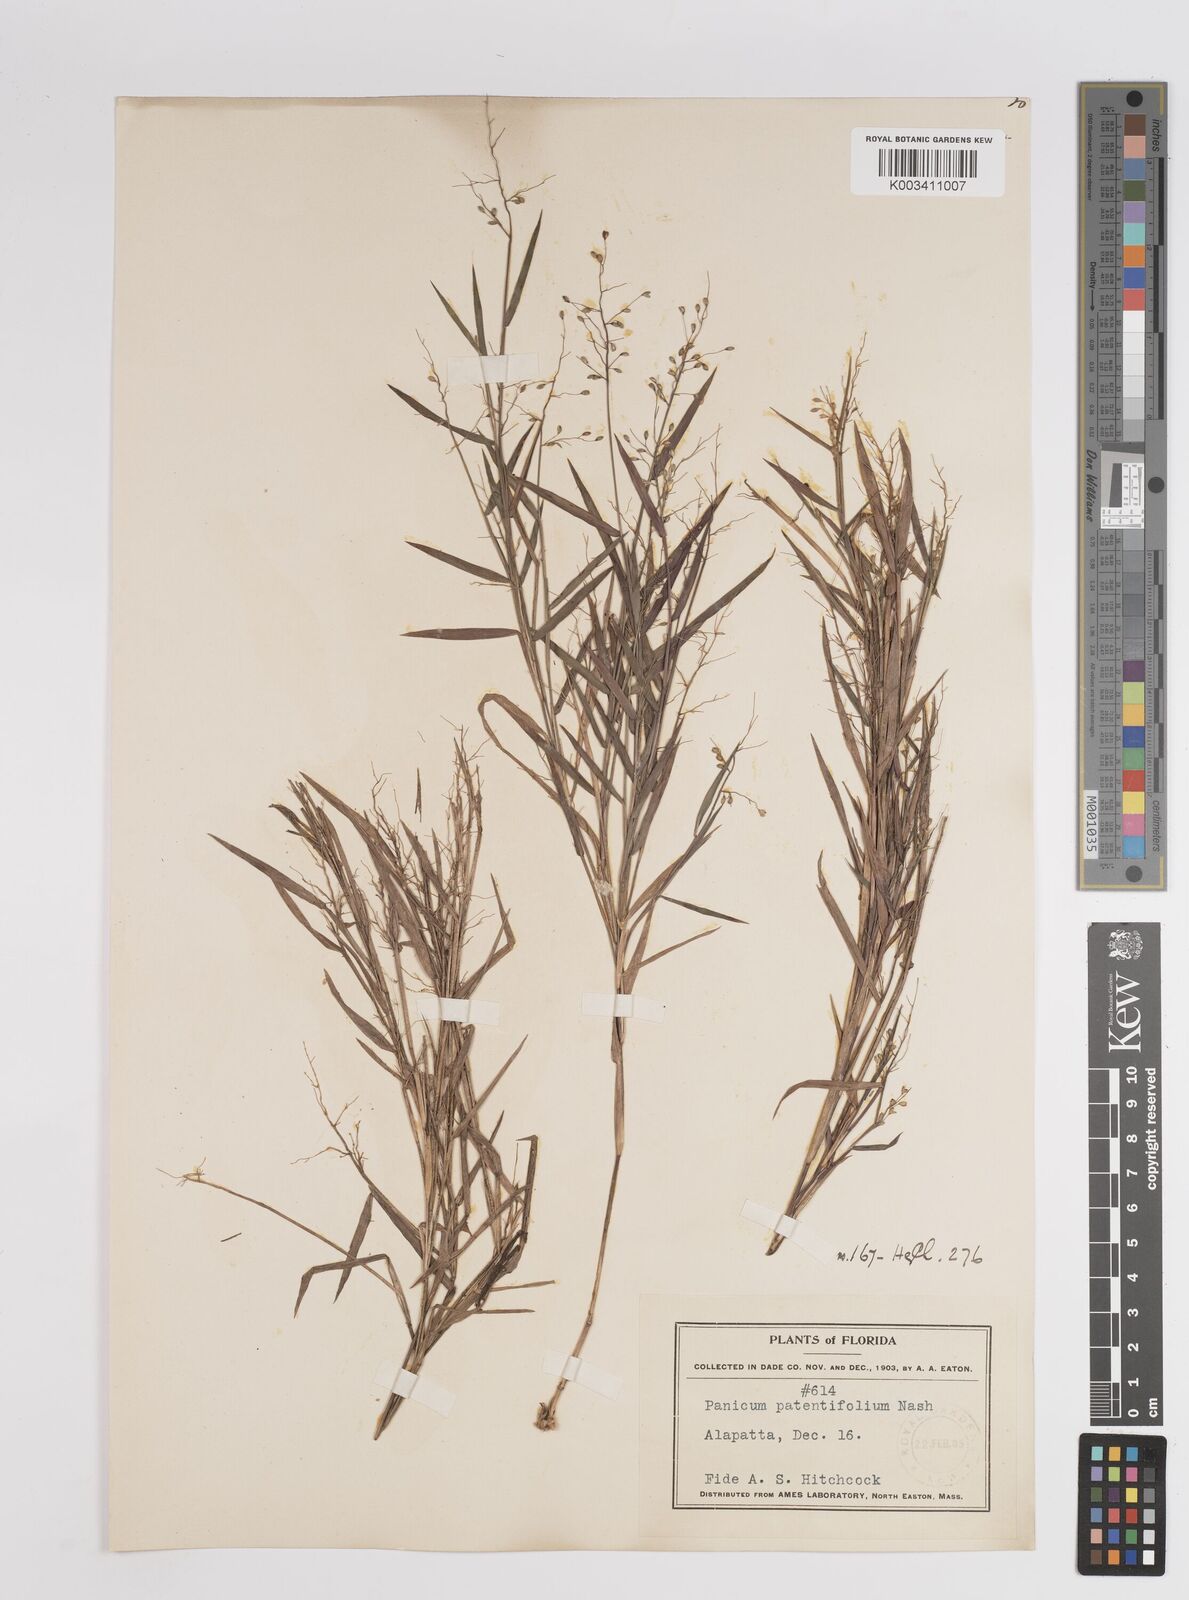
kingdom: Plantae
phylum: Tracheophyta
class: Liliopsida
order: Poales
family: Poaceae
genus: Dichanthelium
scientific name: Dichanthelium patentifolium
